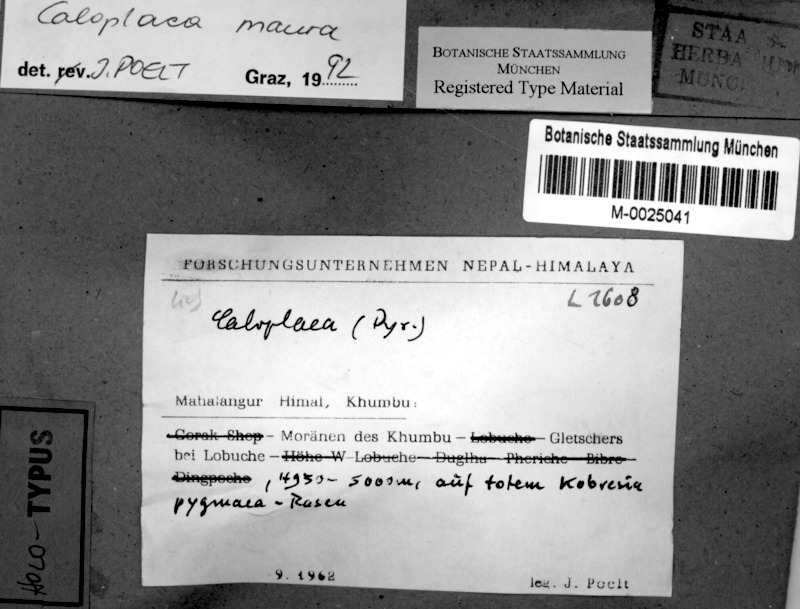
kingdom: Fungi
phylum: Ascomycota
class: Lecanoromycetes
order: Teloschistales
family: Teloschistaceae
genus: Caloplaca
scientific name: Caloplaca
